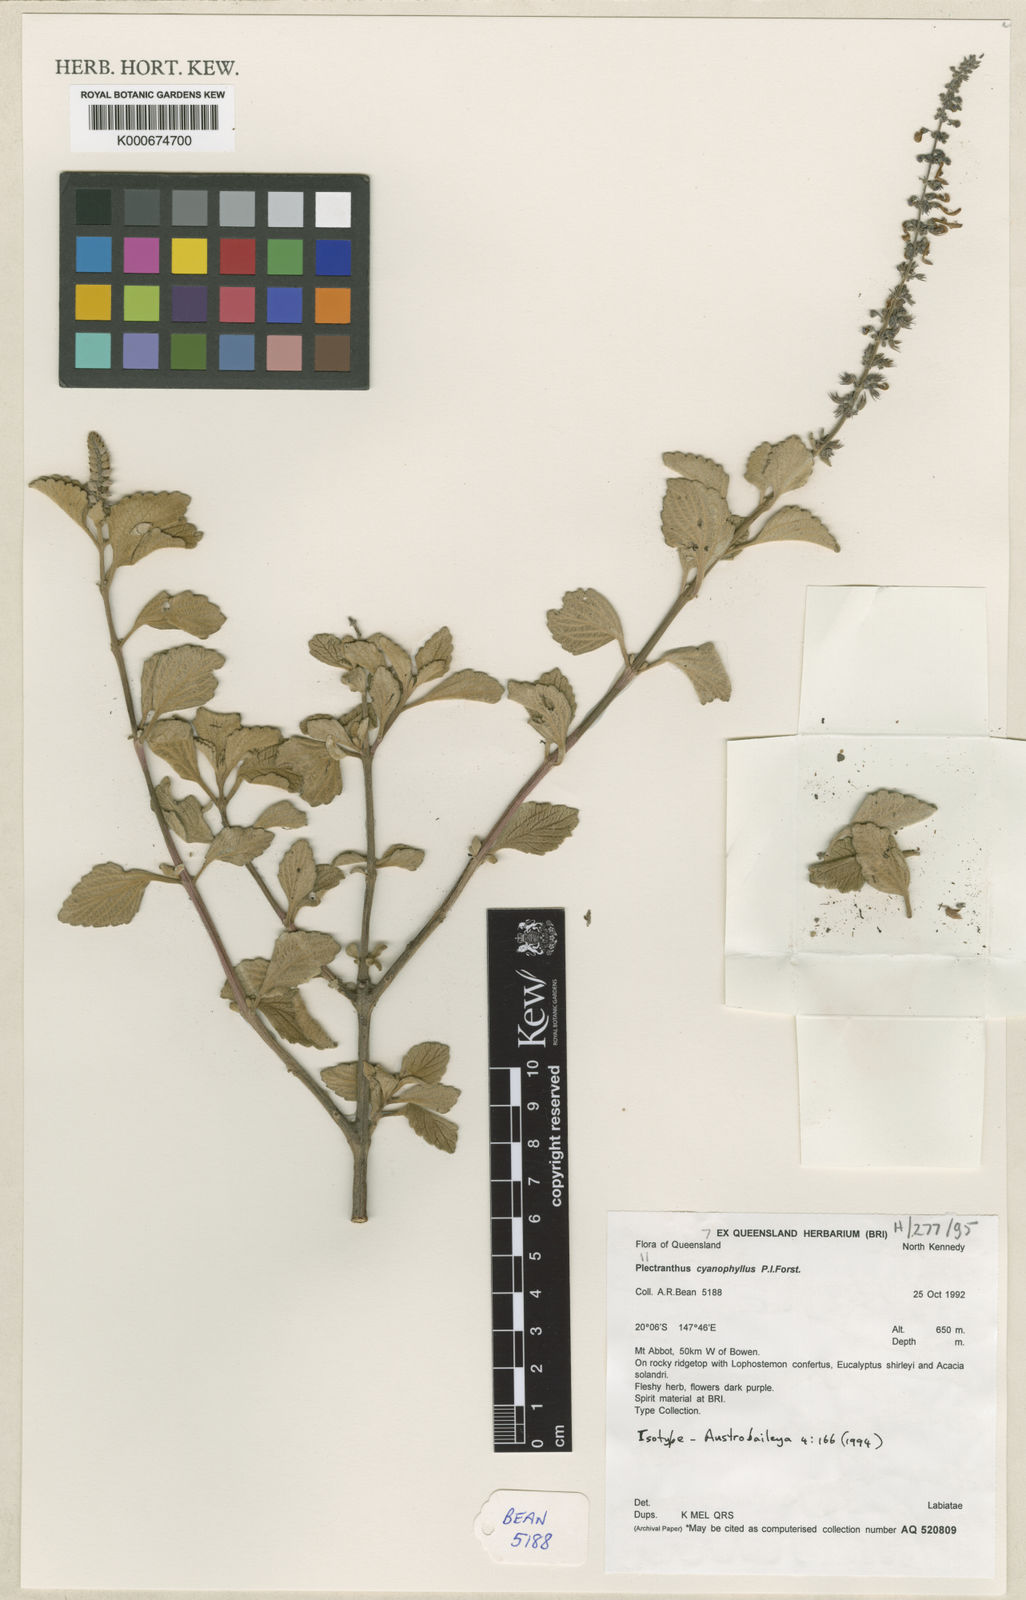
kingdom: Plantae
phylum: Tracheophyta
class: Magnoliopsida
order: Lamiales
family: Lamiaceae
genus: Coleus
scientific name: Coleus cyanophyllus
